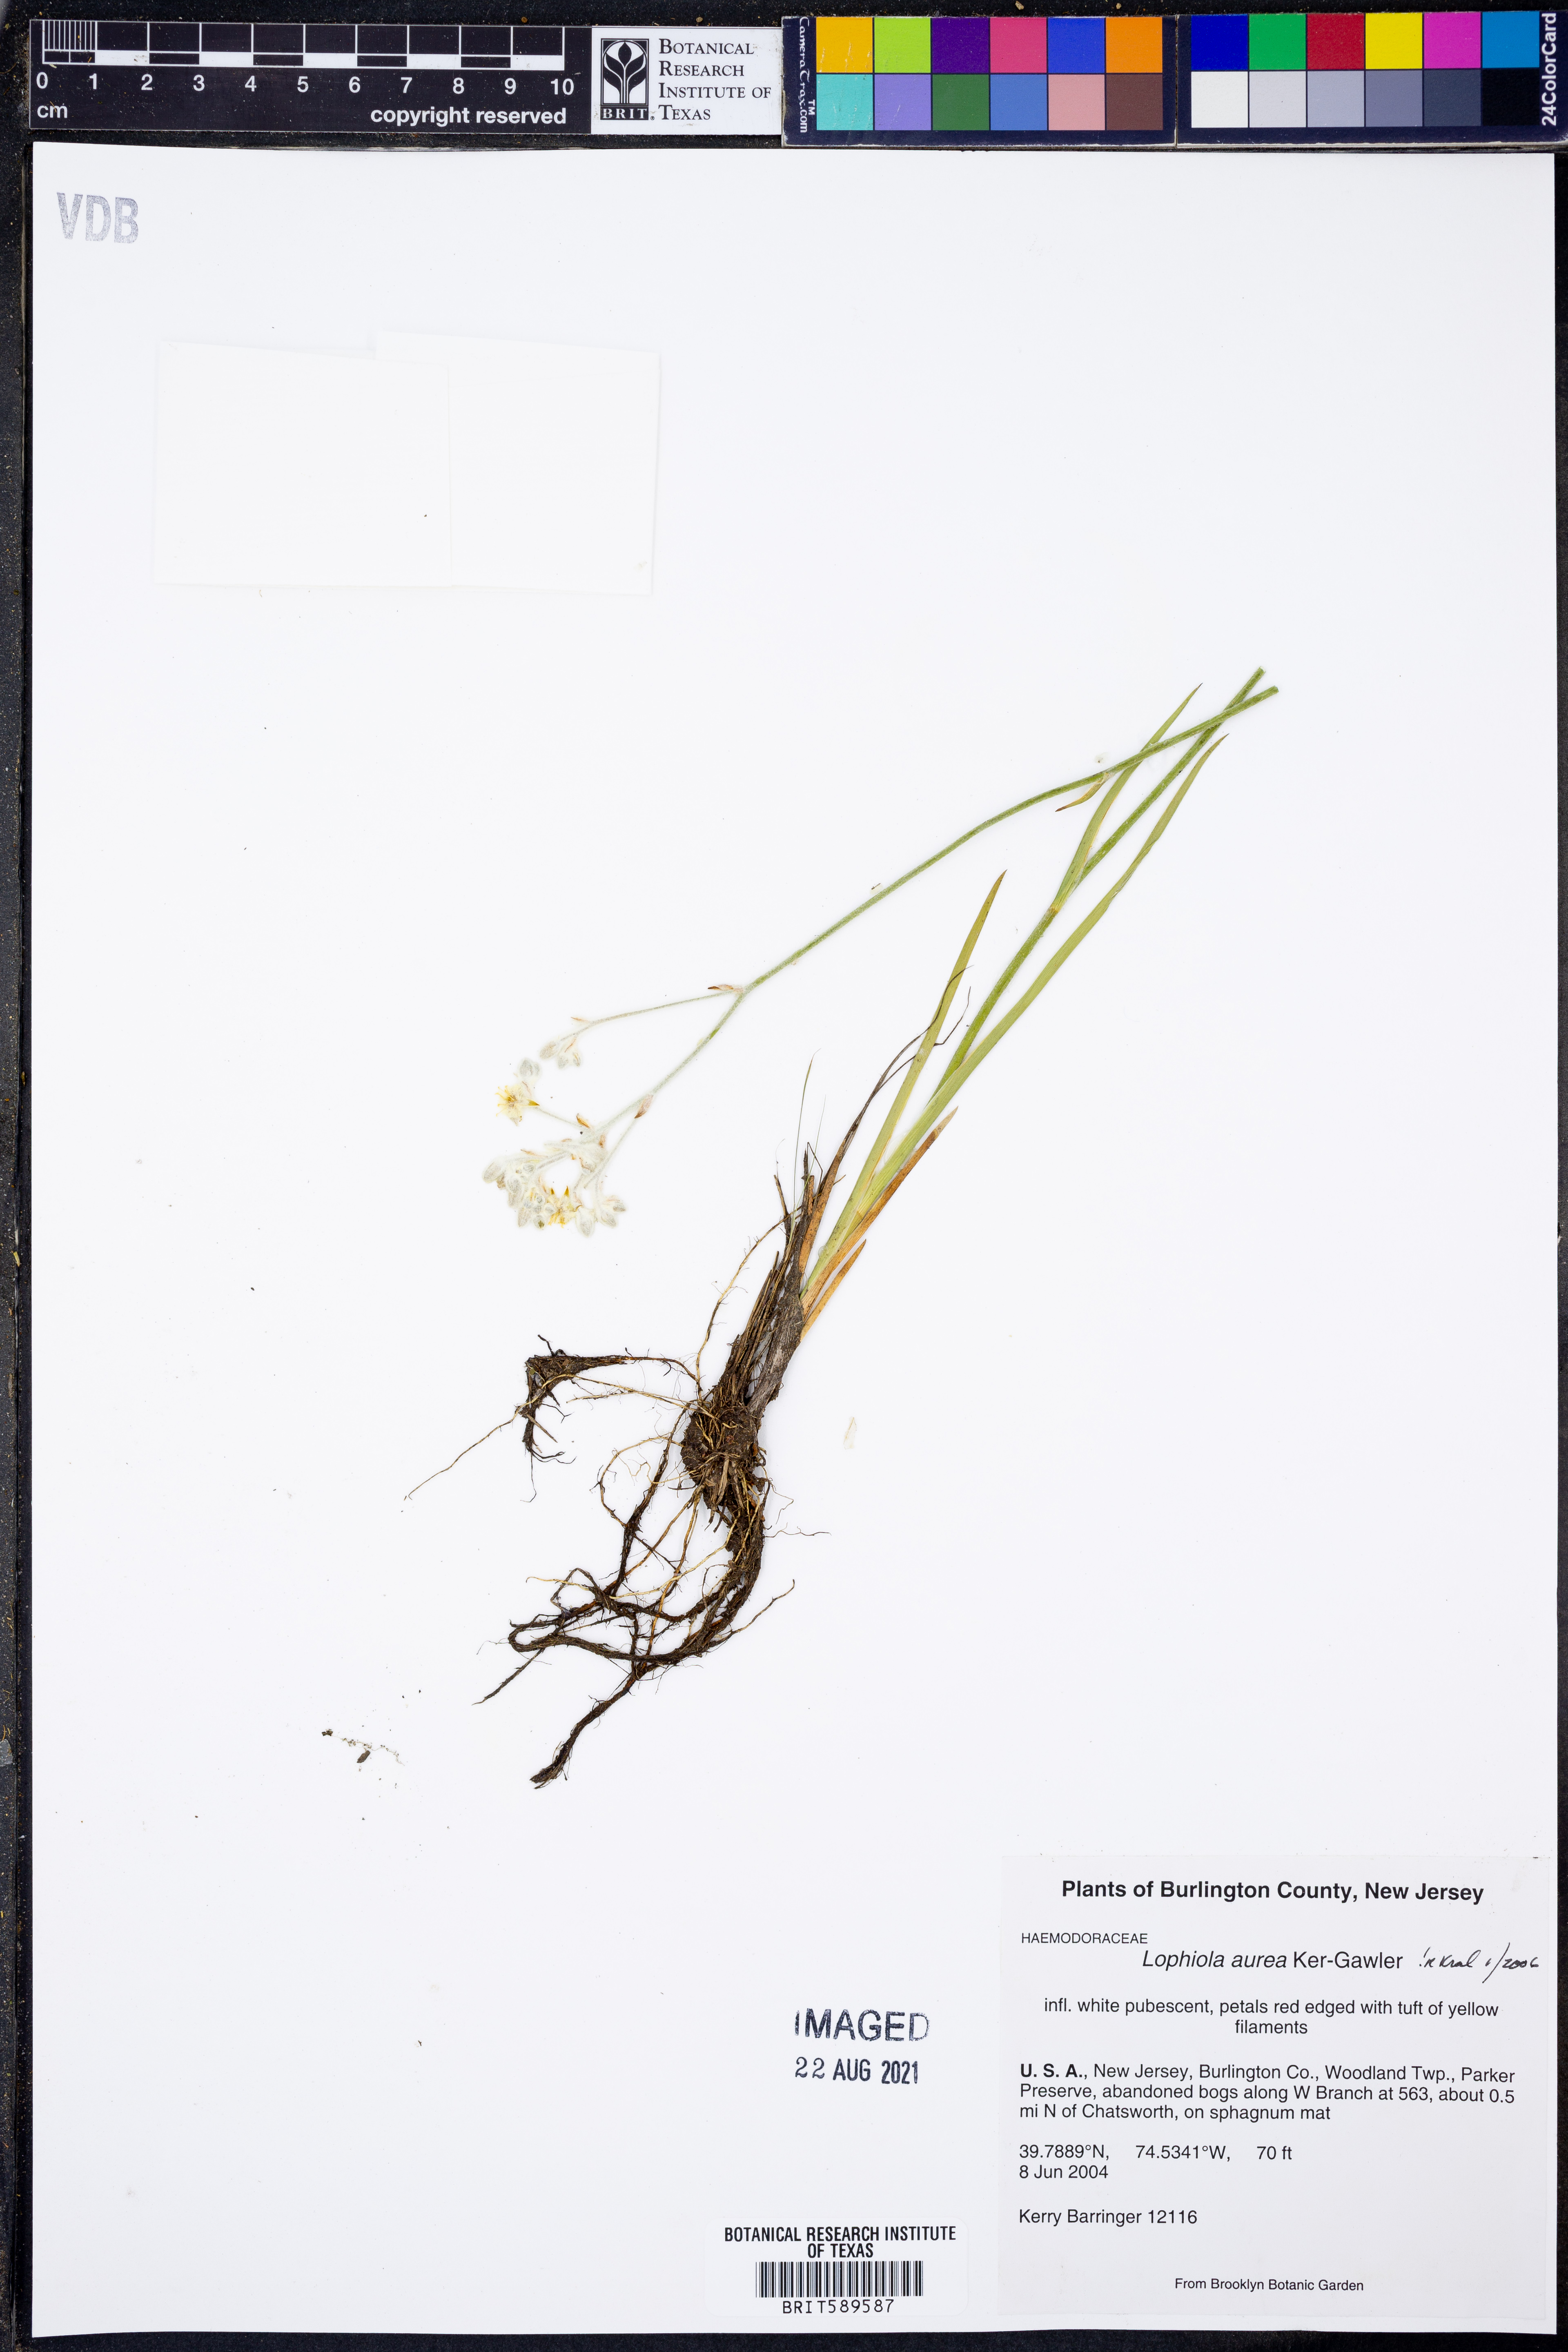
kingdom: Plantae
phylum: Tracheophyta
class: Liliopsida
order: Dioscoreales
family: Nartheciaceae
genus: Lophiola
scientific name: Lophiola aurea
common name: Golden-crest
